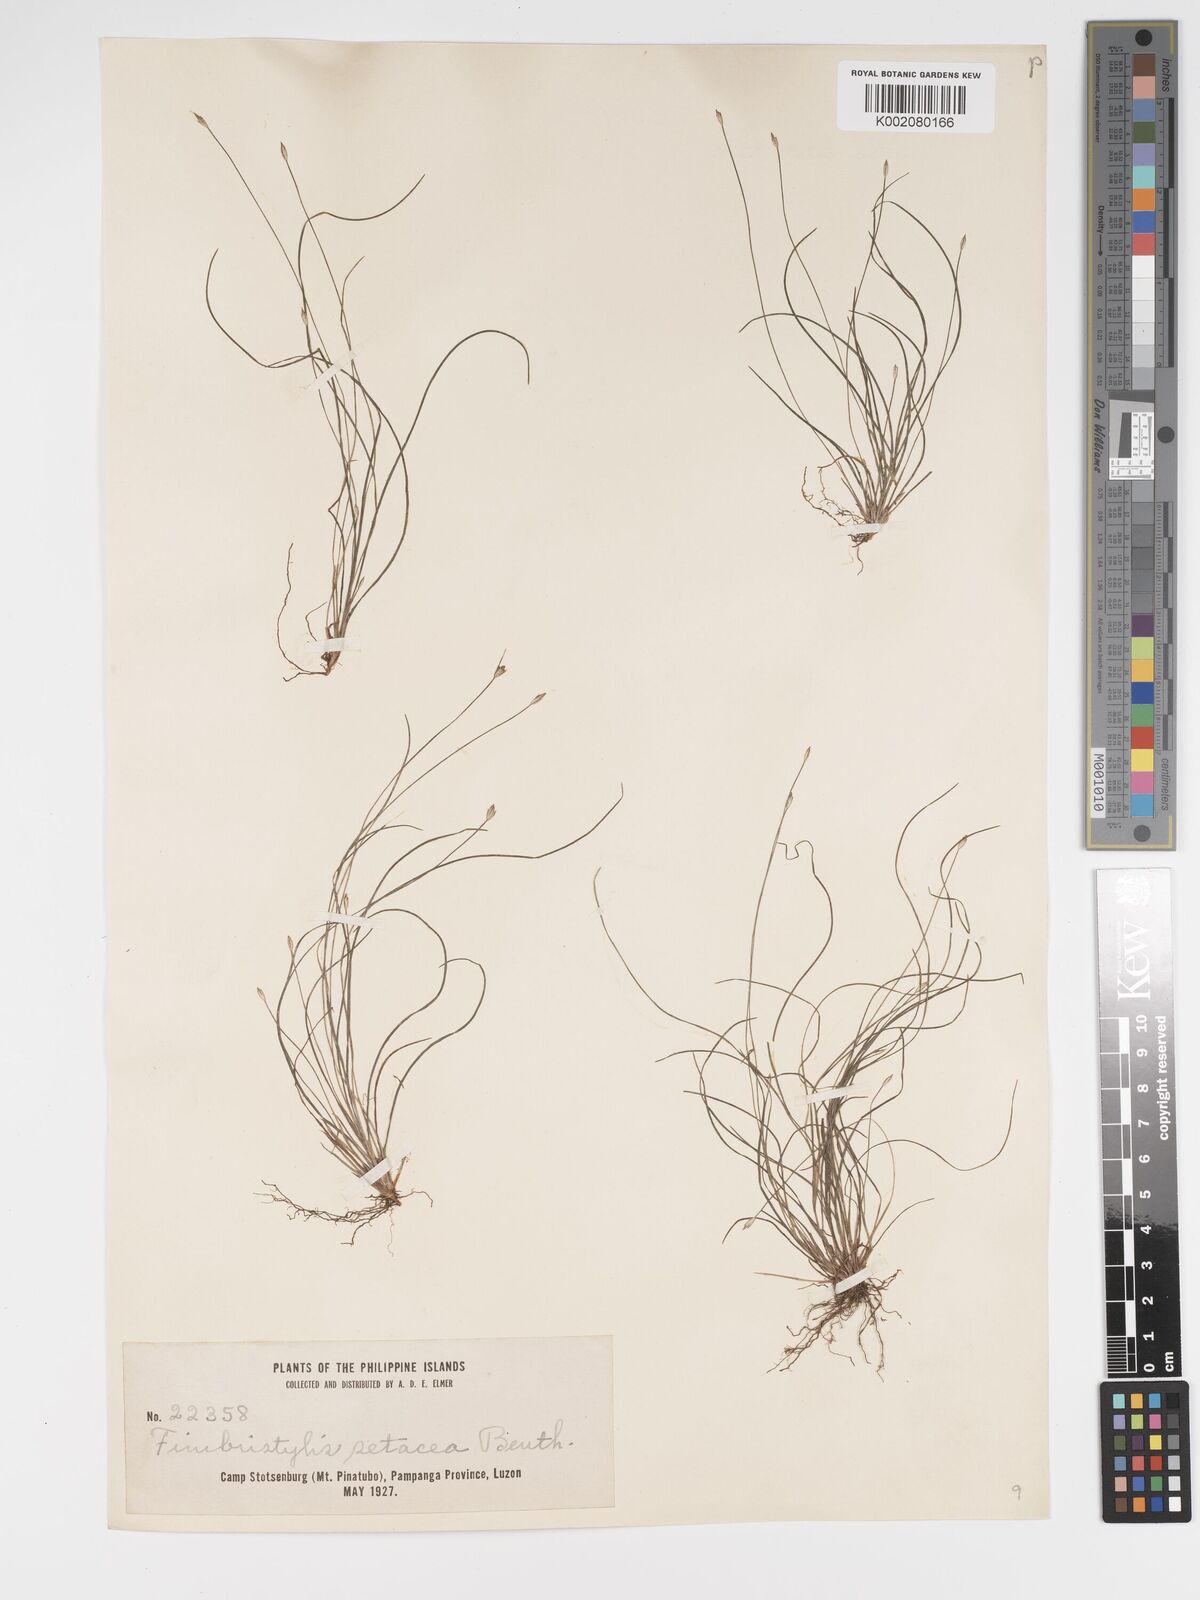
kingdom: Plantae
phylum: Tracheophyta
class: Liliopsida
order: Poales
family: Cyperaceae
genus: Fimbristylis
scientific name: Fimbristylis acicularis
